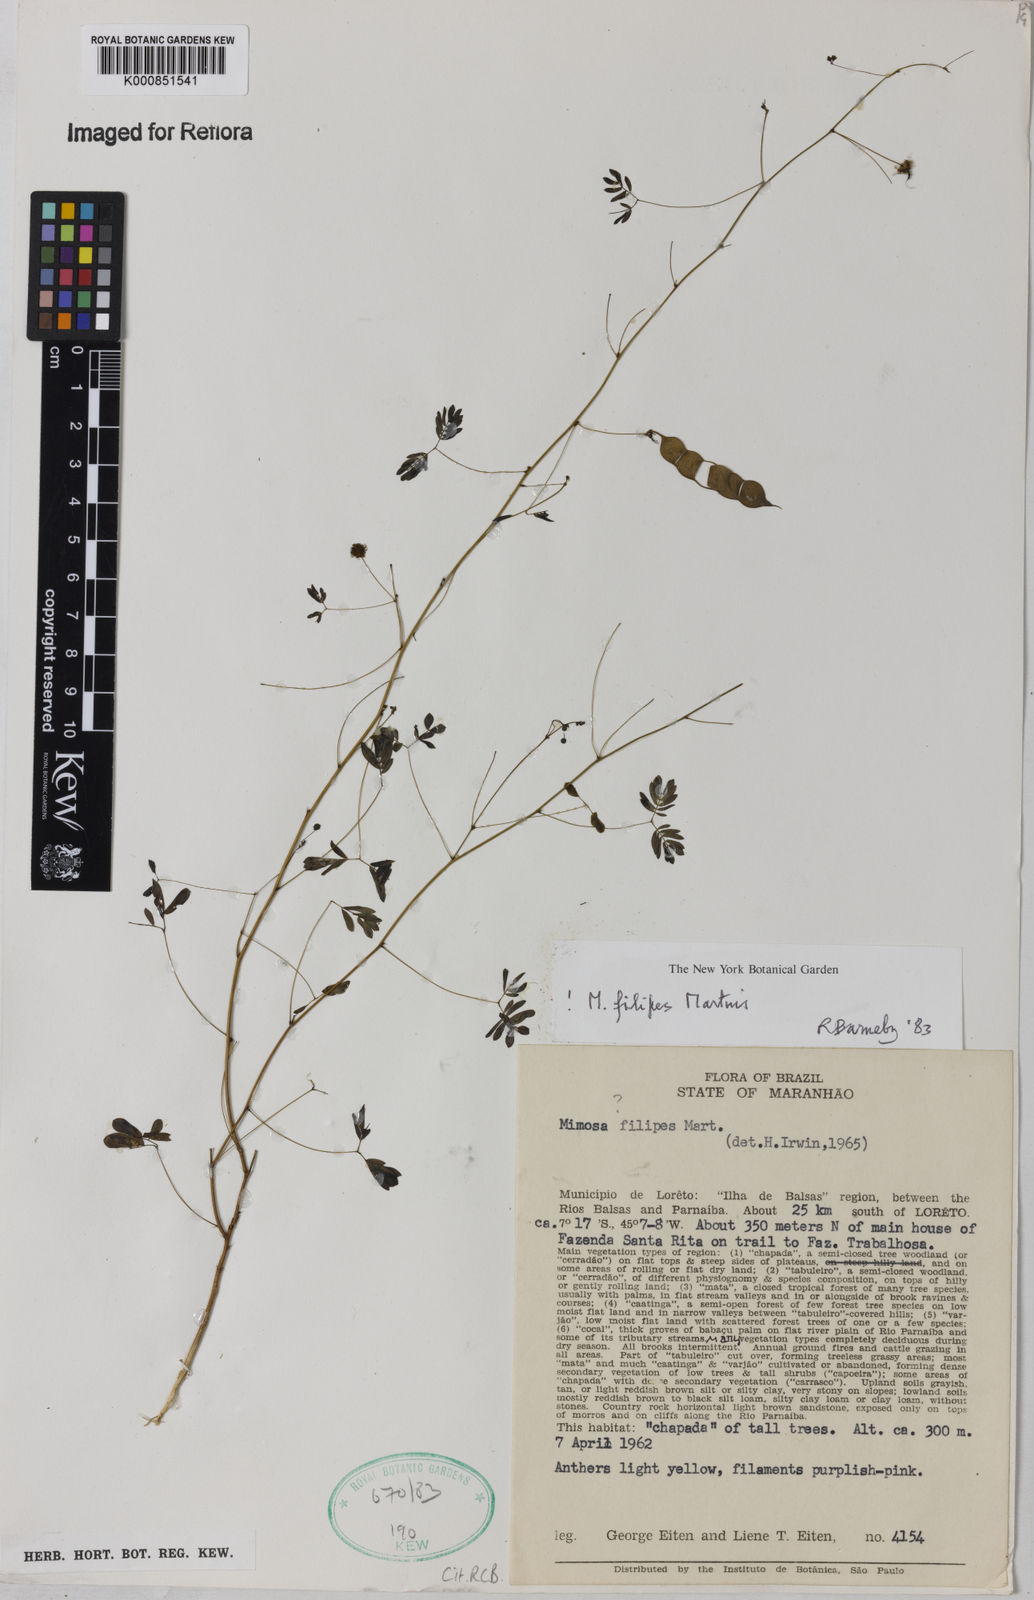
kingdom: Plantae
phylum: Tracheophyta
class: Magnoliopsida
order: Fabales
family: Fabaceae
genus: Mimosa
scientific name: Mimosa texana
